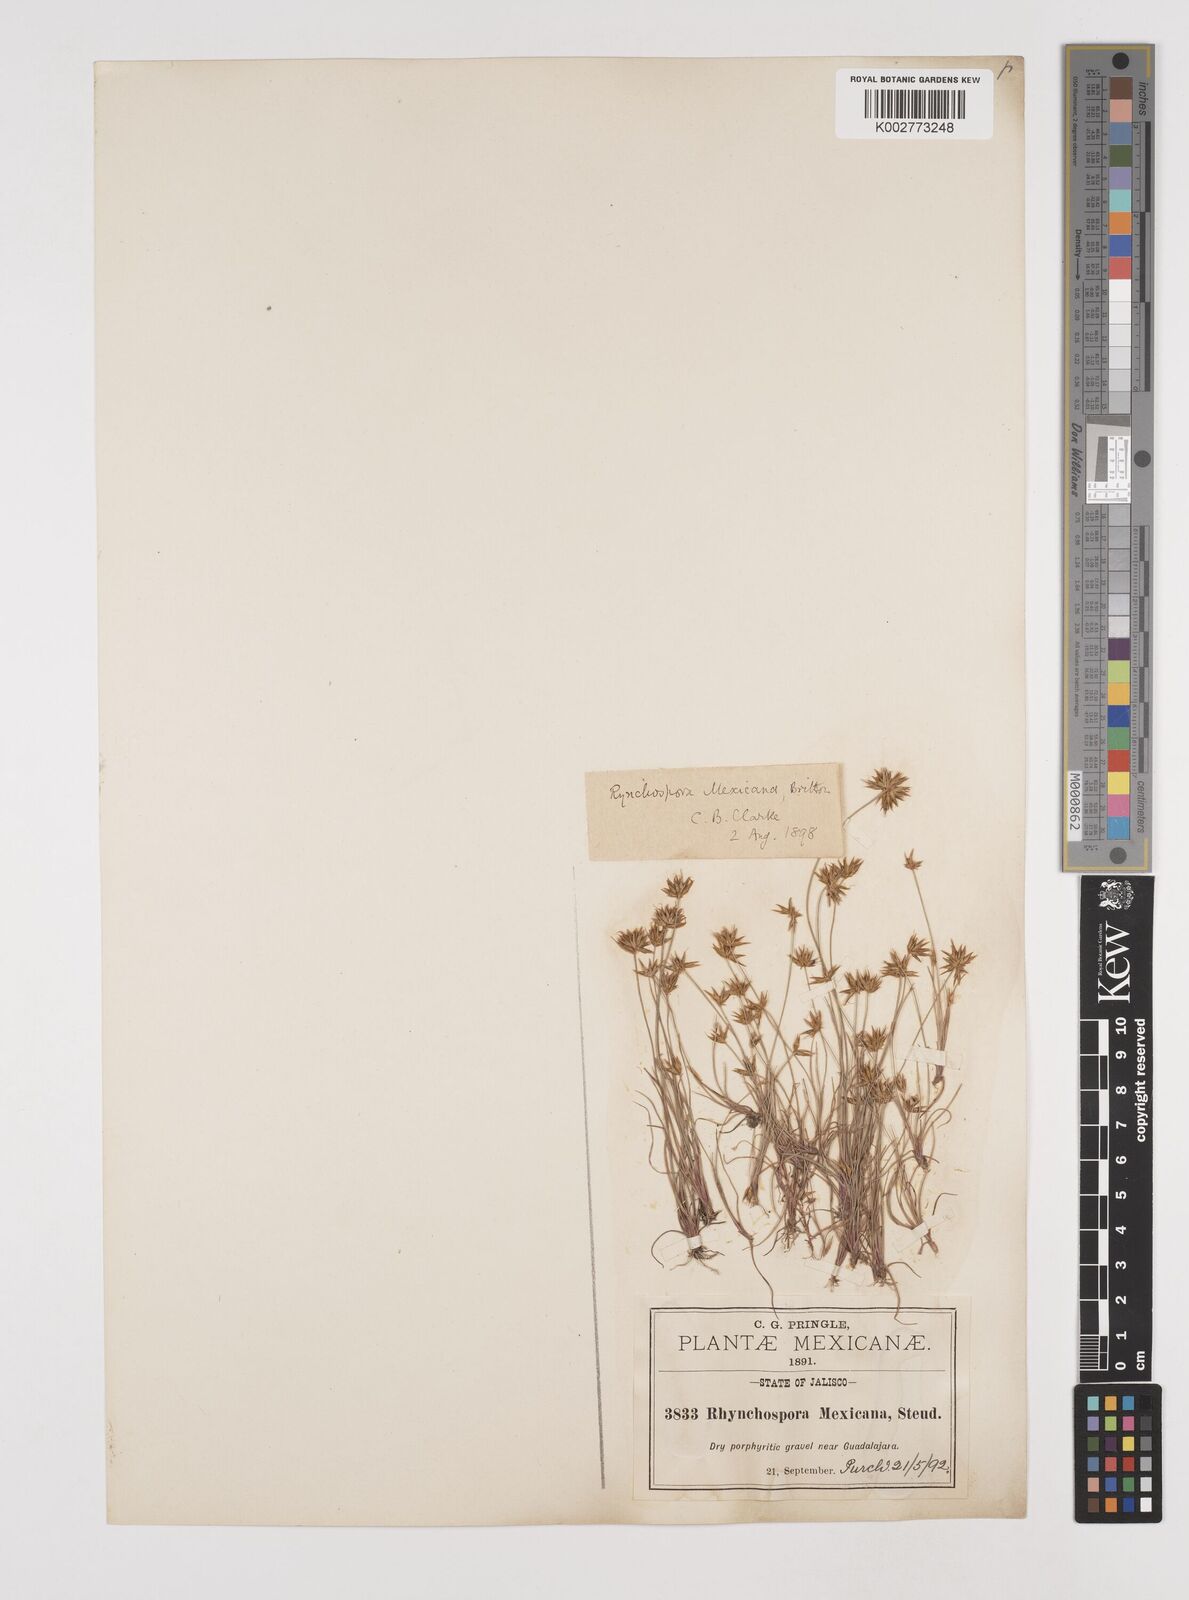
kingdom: Plantae
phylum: Tracheophyta
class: Liliopsida
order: Poales
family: Cyperaceae
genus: Rhynchospora
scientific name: Rhynchospora mexicana
